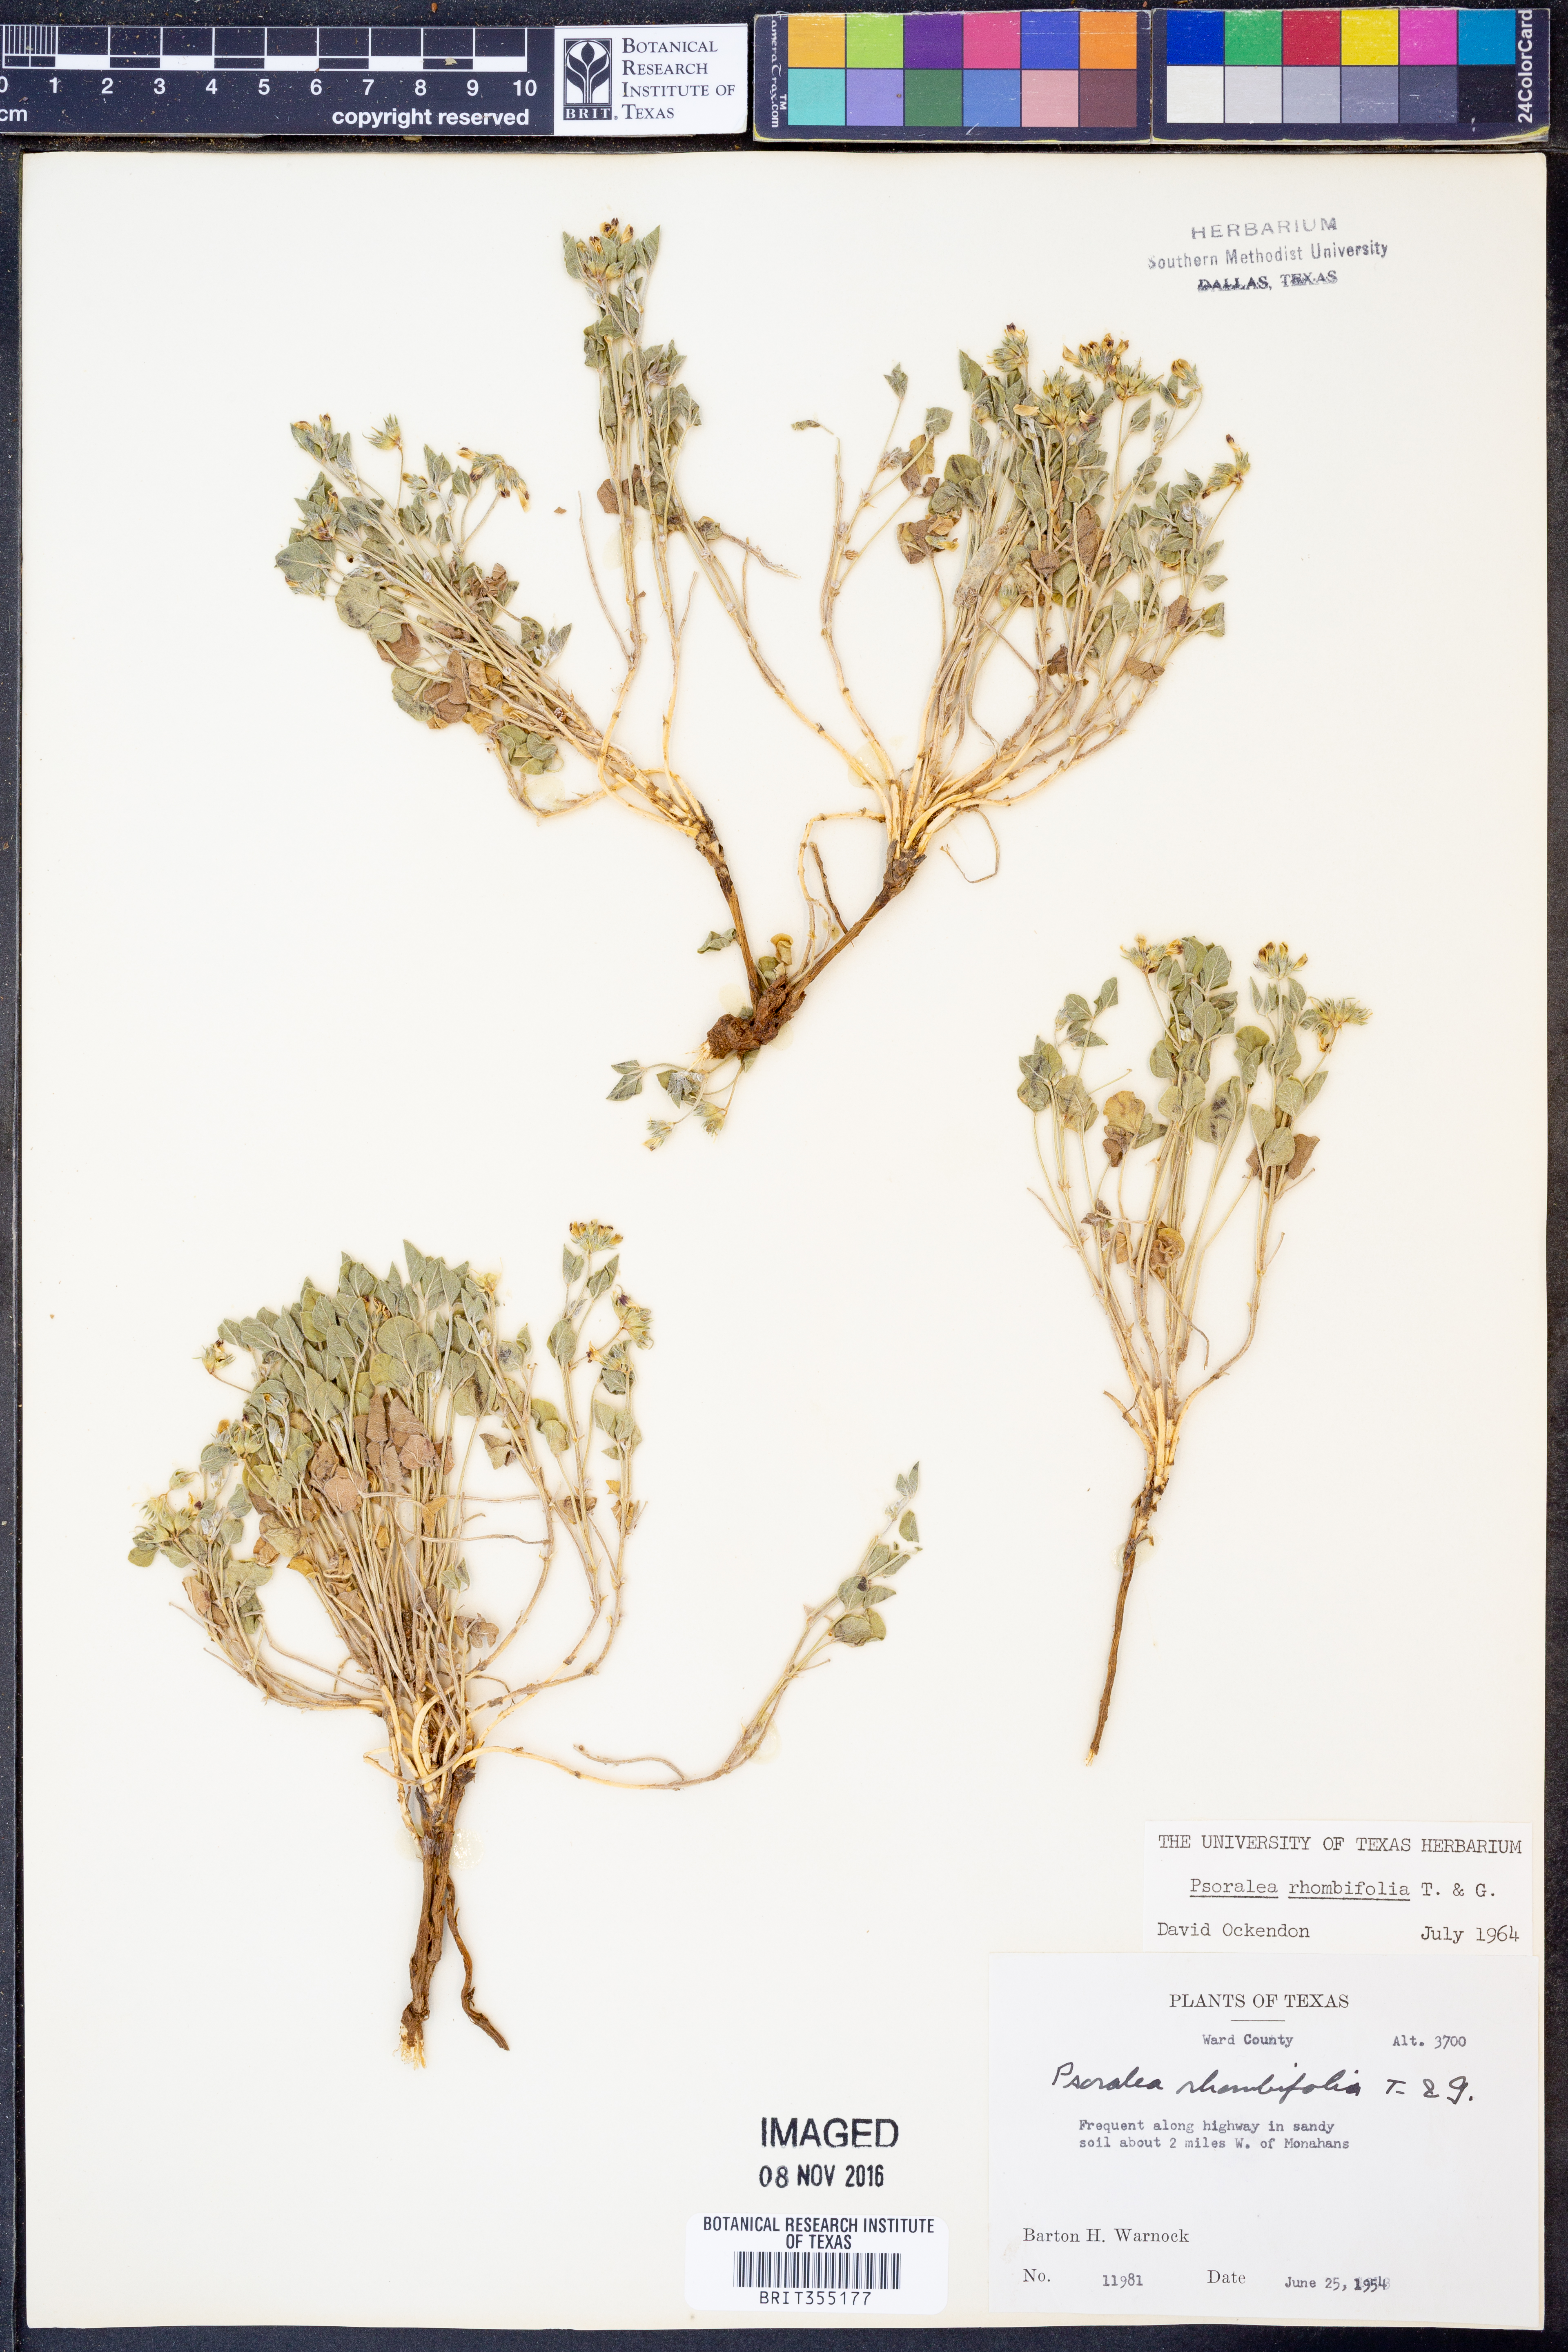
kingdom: Plantae
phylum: Tracheophyta
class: Magnoliopsida
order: Fabales
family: Fabaceae
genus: Pediomelum
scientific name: Pediomelum rhombifolium
